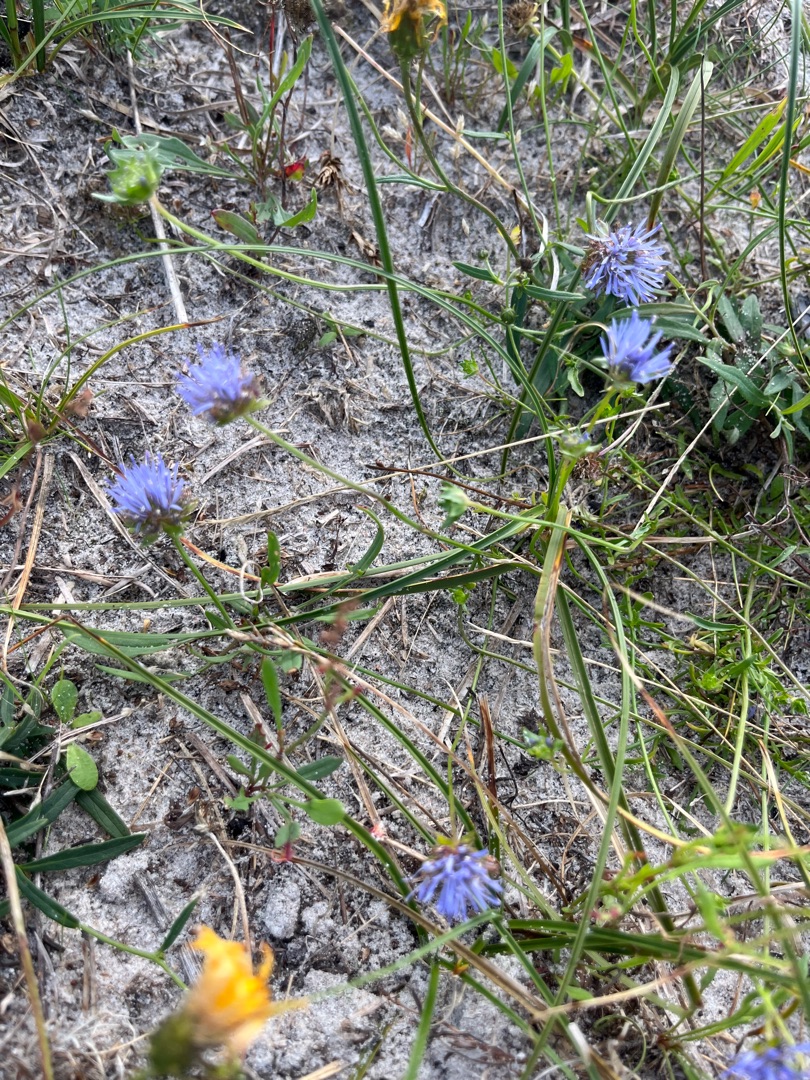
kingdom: Plantae
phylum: Tracheophyta
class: Magnoliopsida
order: Asterales
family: Campanulaceae
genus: Jasione
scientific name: Jasione montana
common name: Blåmunke
